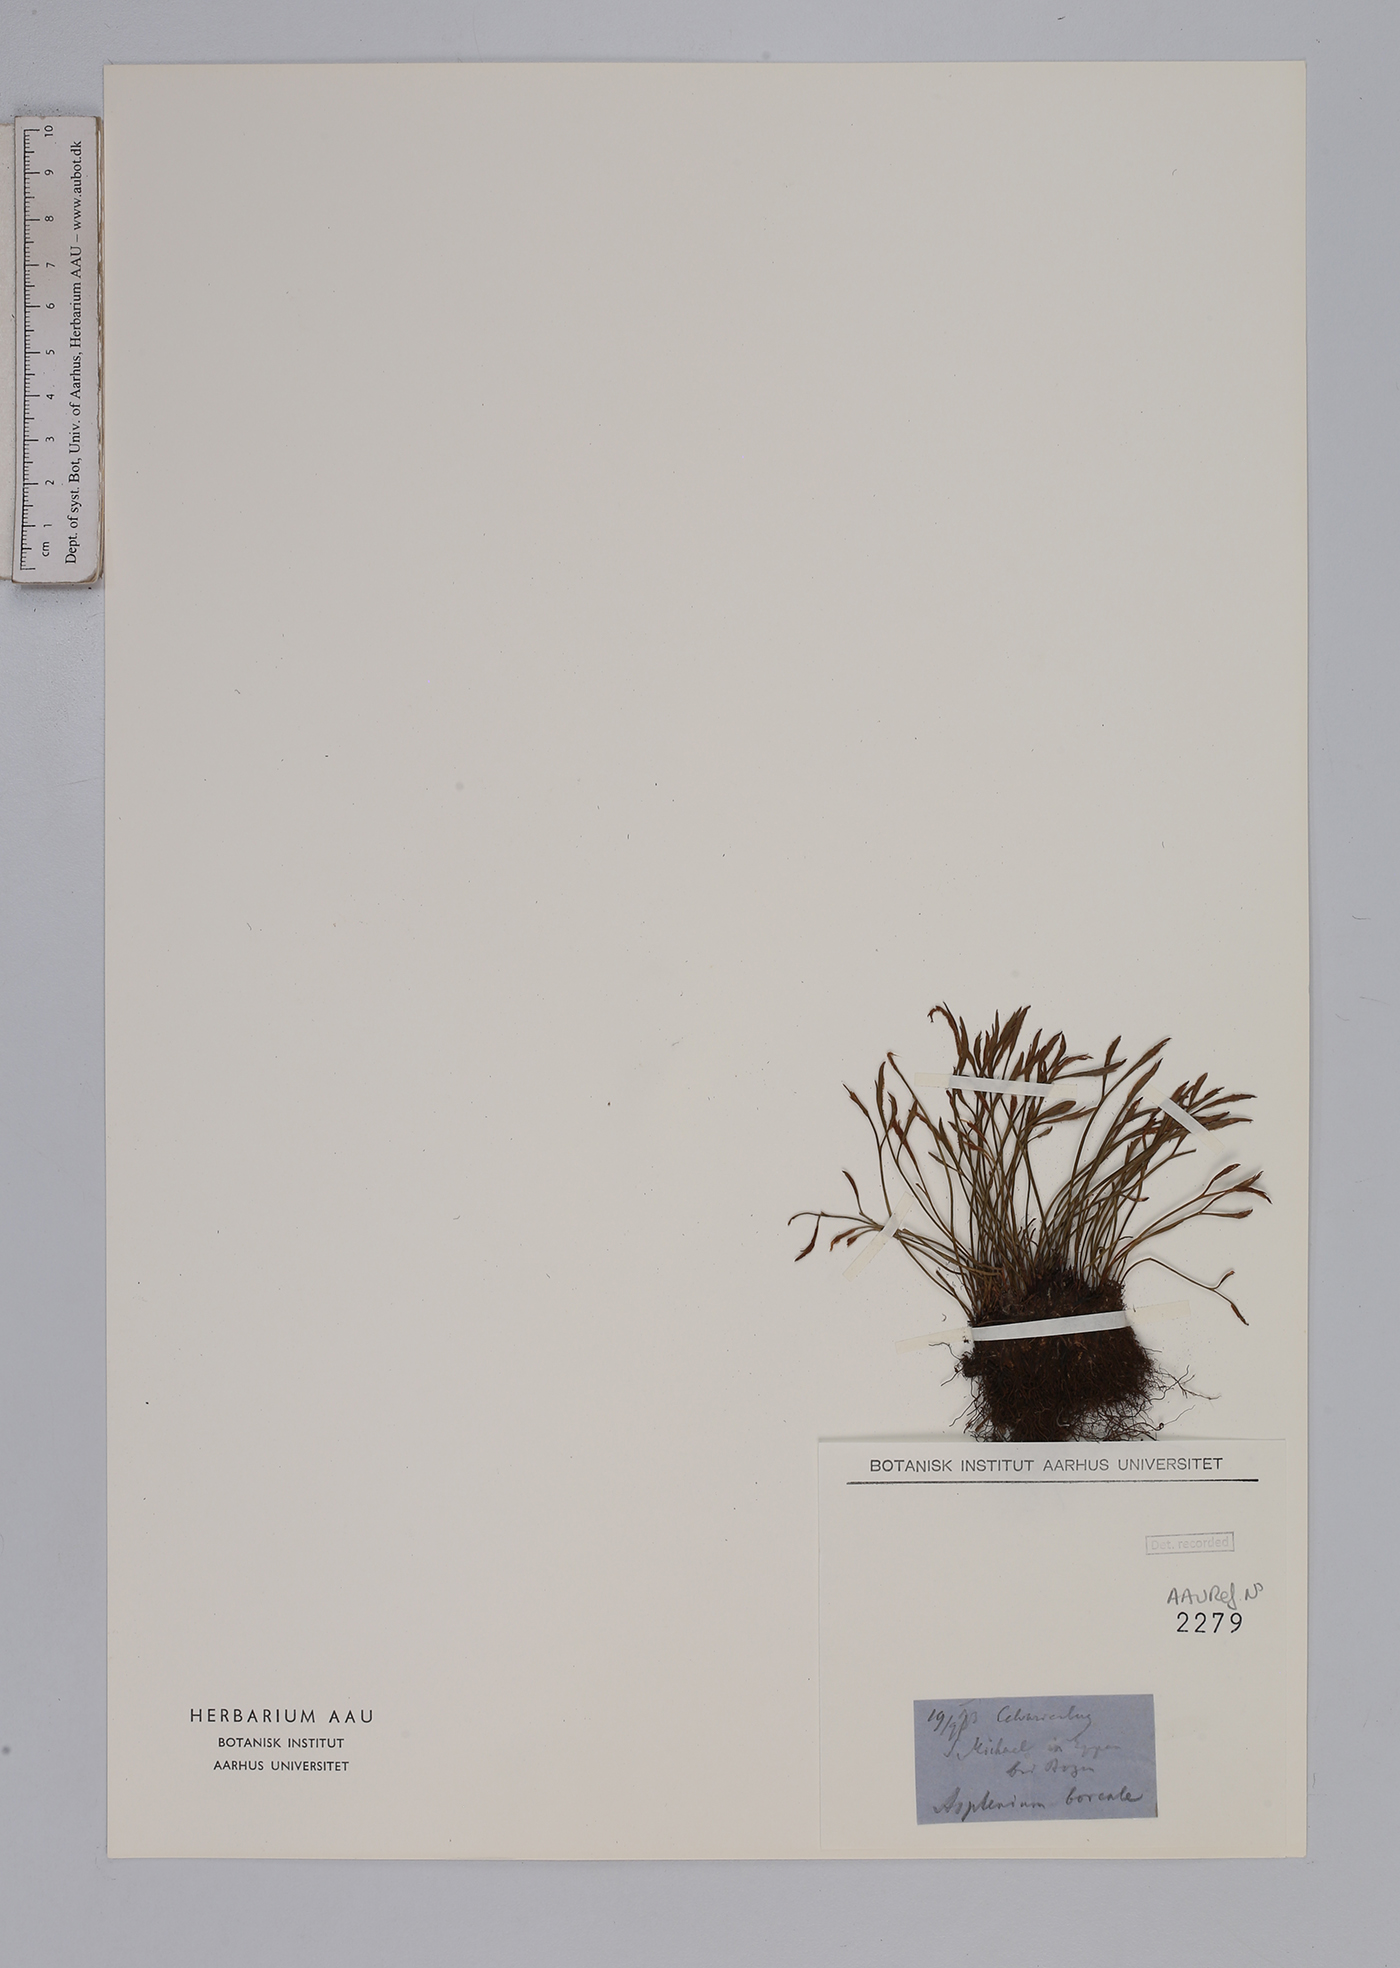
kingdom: Plantae
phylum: Tracheophyta
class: Polypodiopsida
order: Polypodiales
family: Aspleniaceae
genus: Asplenium
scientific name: Asplenium septentrionale
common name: Forked spleenwort
